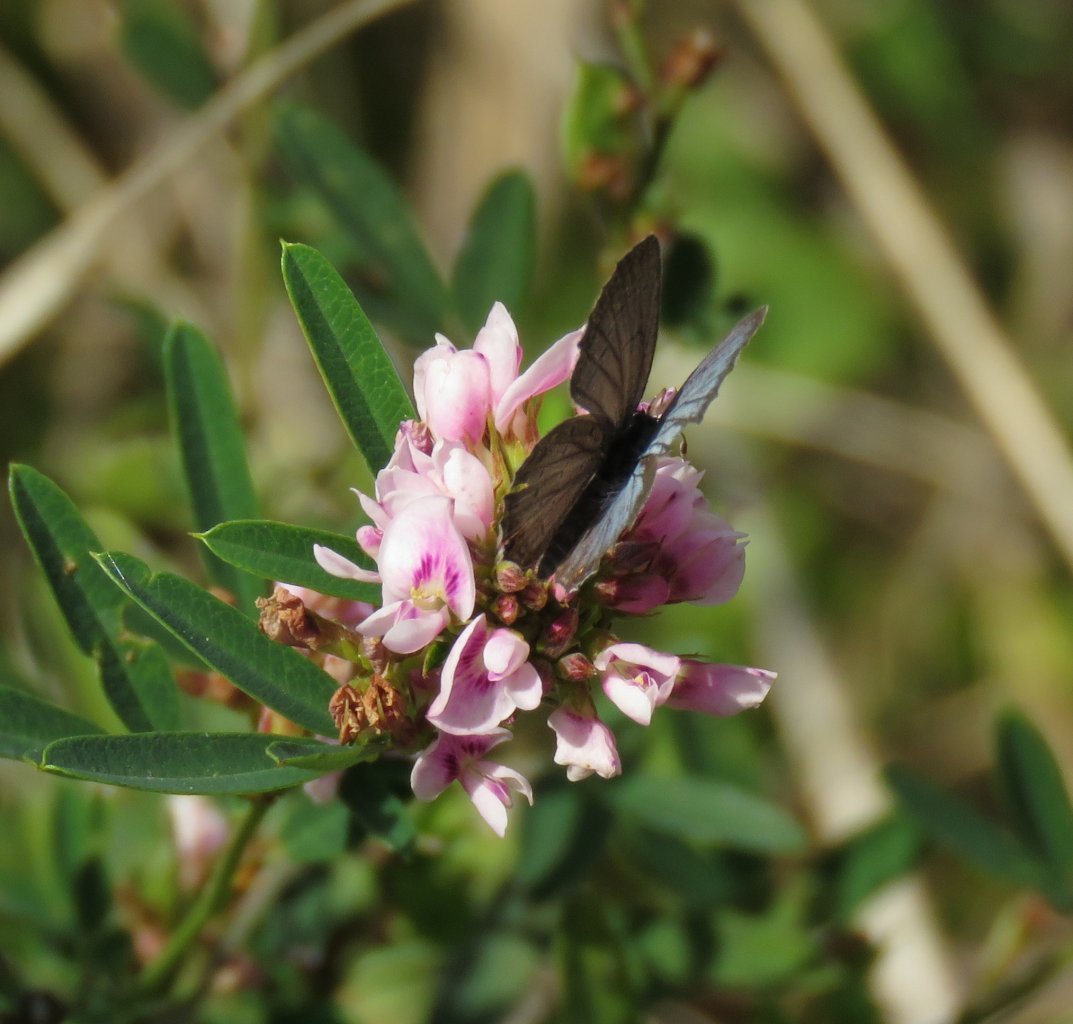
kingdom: Animalia
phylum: Arthropoda
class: Insecta
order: Lepidoptera
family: Lycaenidae
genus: Elkalyce
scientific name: Elkalyce comyntas
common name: Eastern Tailed-Blue
